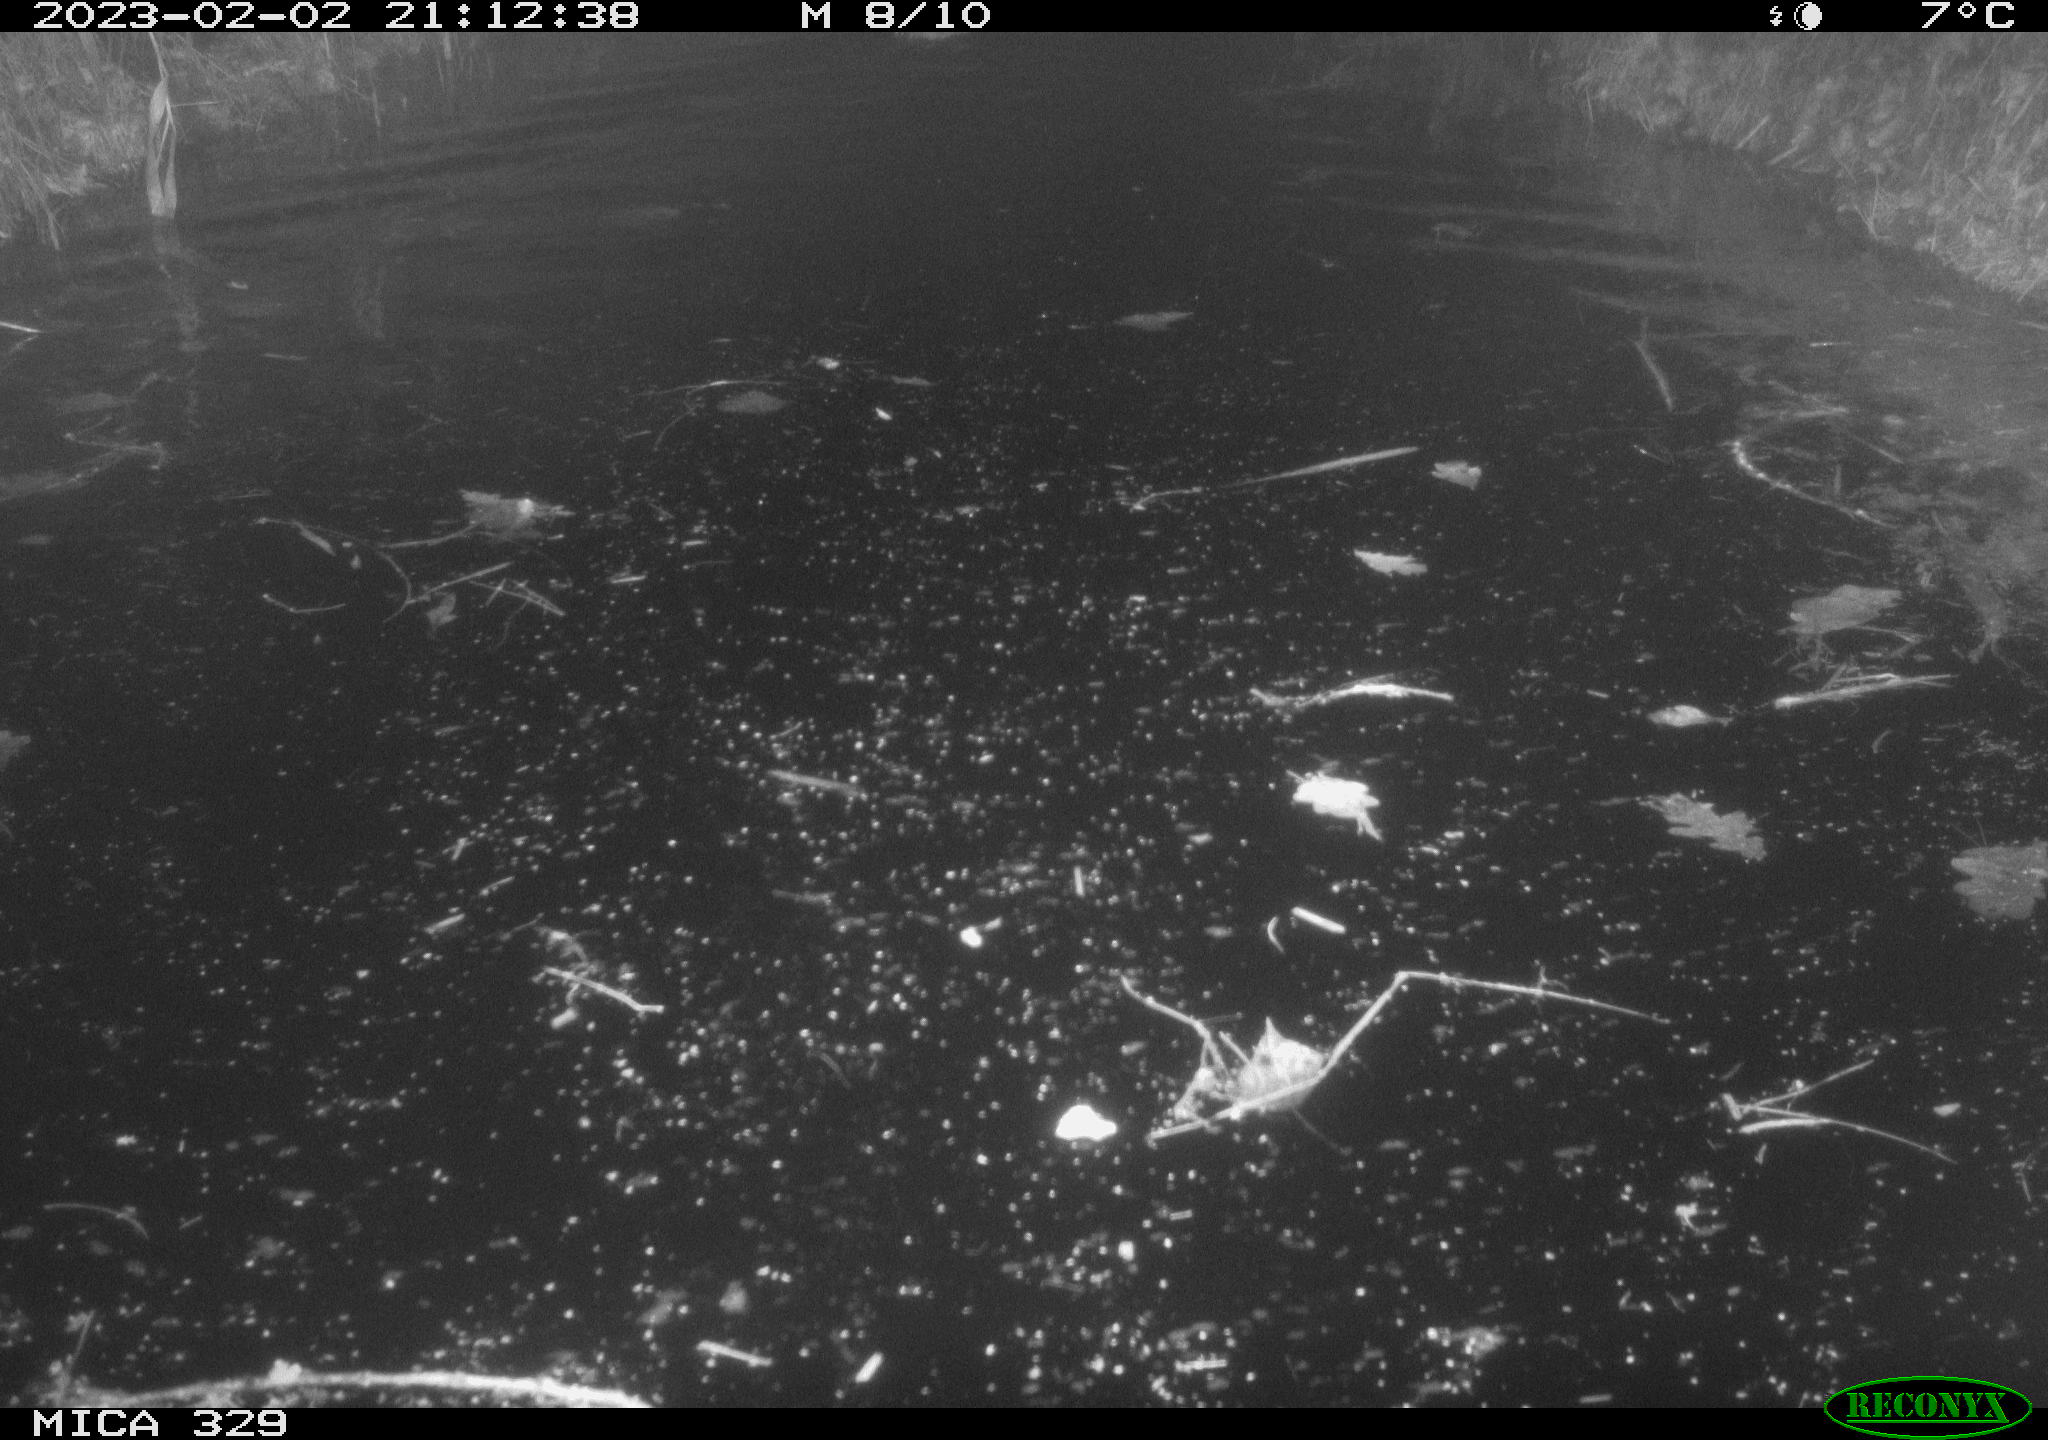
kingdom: Animalia
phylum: Chordata
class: Mammalia
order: Rodentia
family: Cricetidae
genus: Ondatra
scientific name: Ondatra zibethicus
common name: Muskrat
